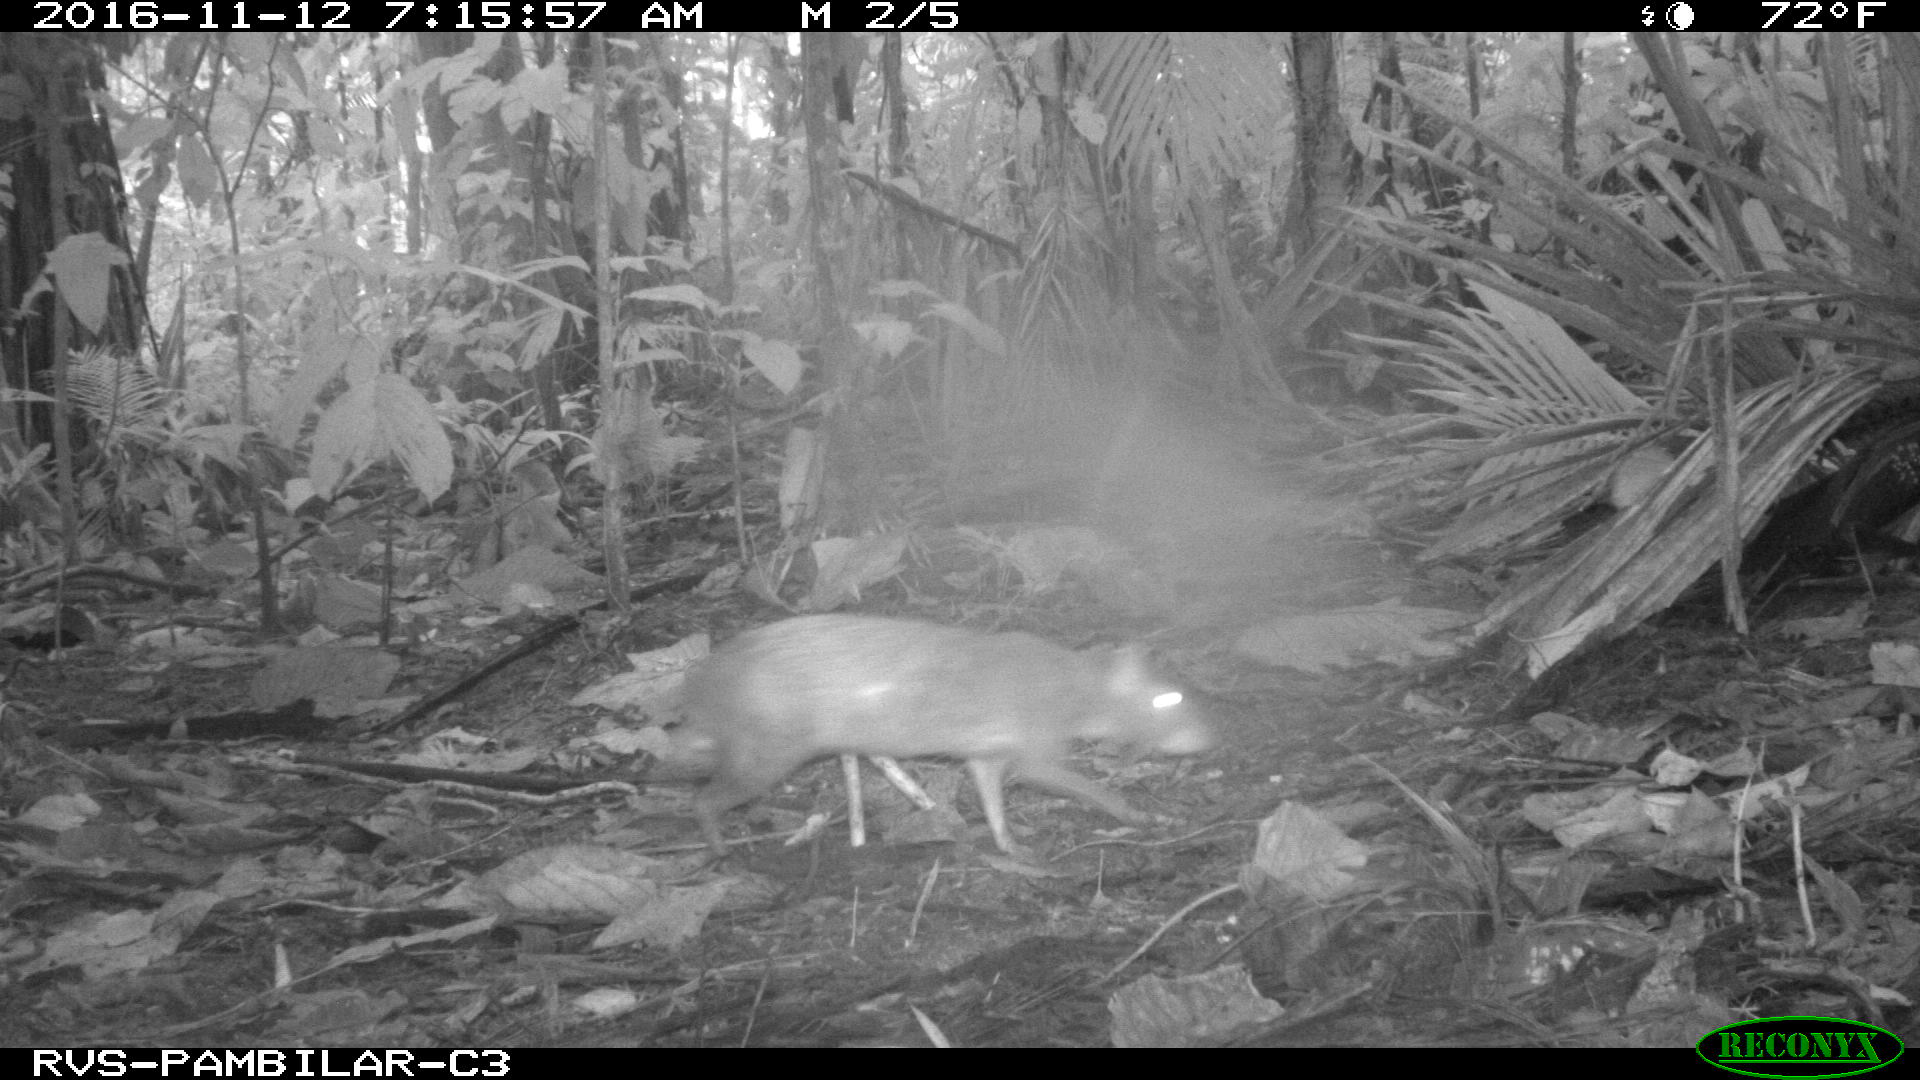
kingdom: Animalia
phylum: Chordata
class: Mammalia
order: Rodentia
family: Dasyproctidae
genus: Dasyprocta
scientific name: Dasyprocta punctata
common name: Central american agouti
